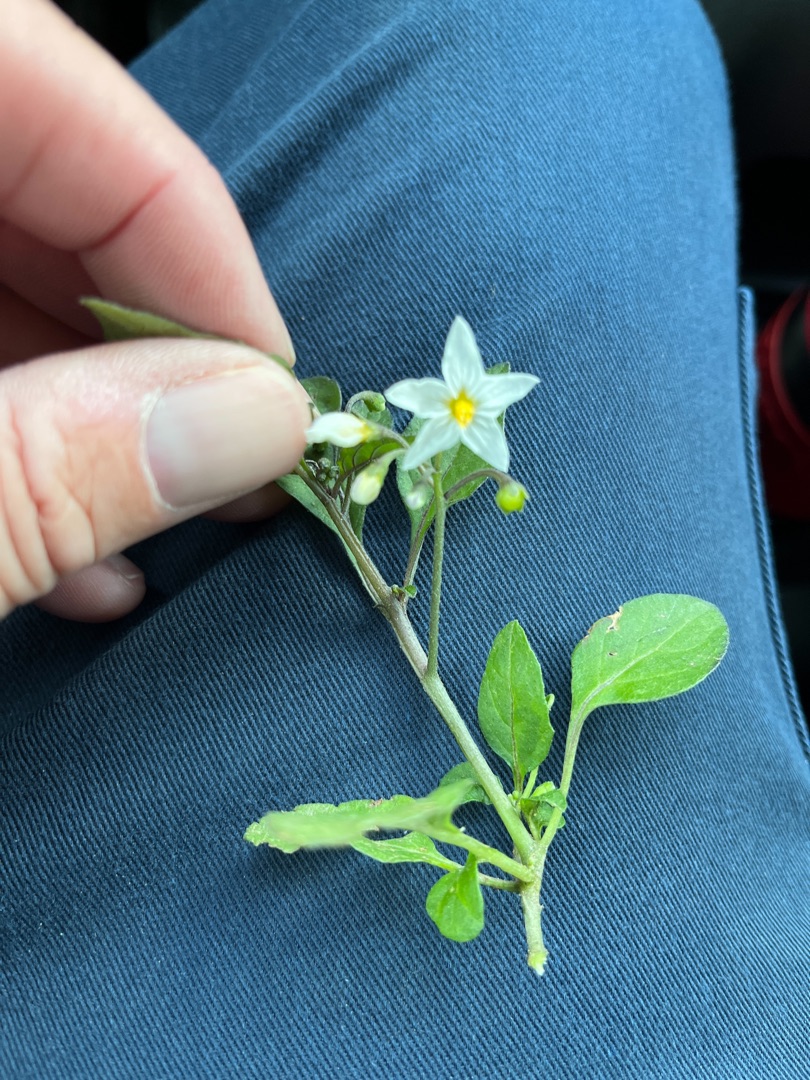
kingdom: Plantae
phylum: Tracheophyta
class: Magnoliopsida
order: Solanales
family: Solanaceae
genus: Solanum
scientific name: Solanum nigrum
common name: Sort natskygge
